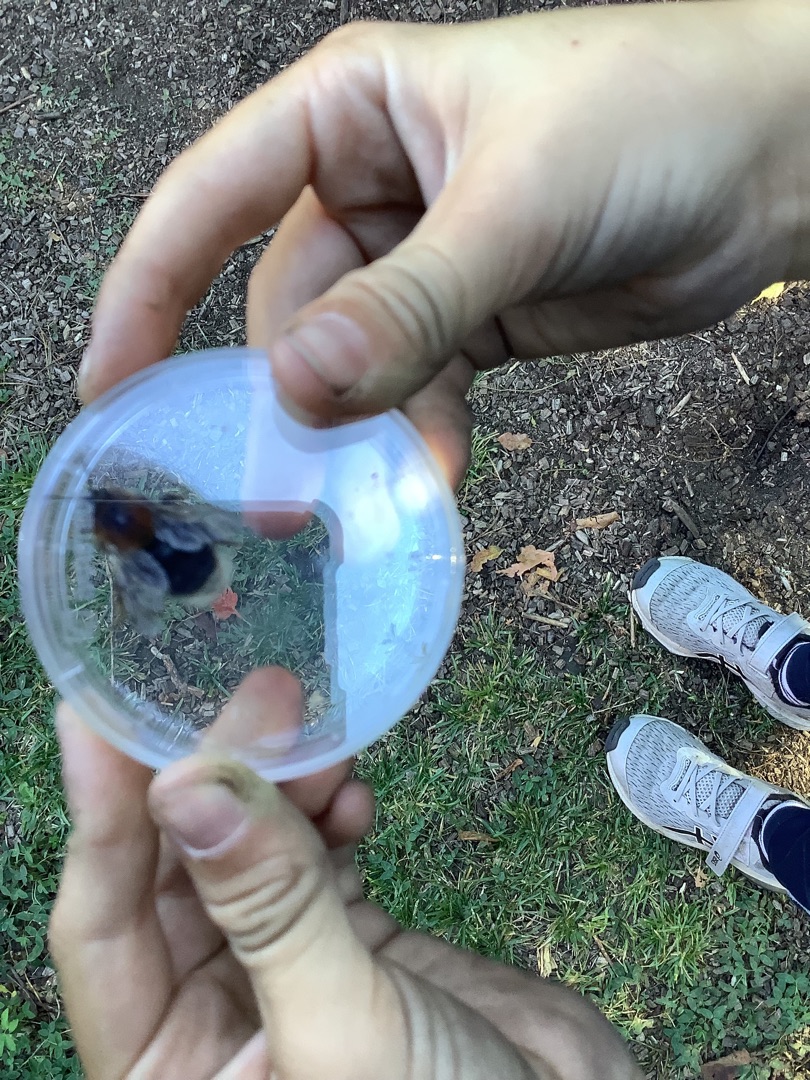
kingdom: Animalia
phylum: Arthropoda
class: Insecta
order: Hymenoptera
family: Apidae
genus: Bombus
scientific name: Bombus hypnorum
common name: Hushumle
